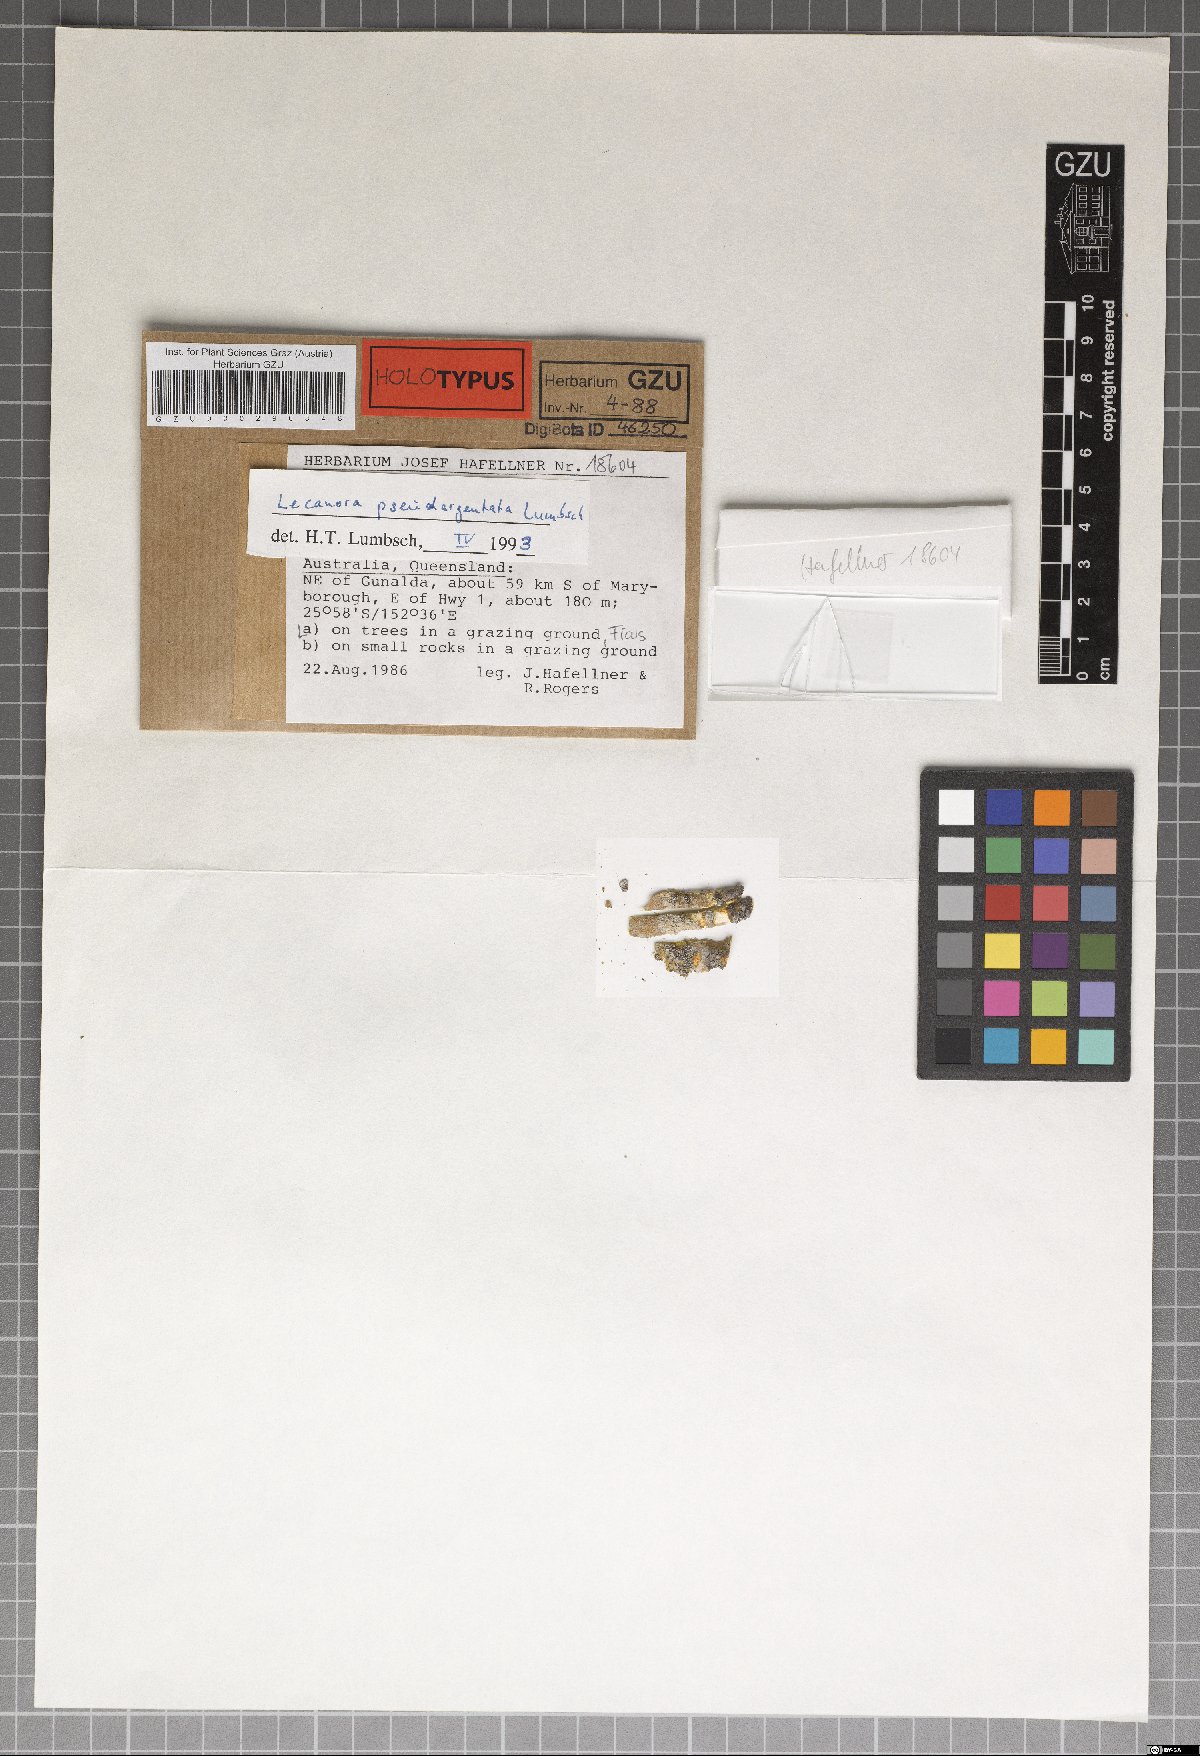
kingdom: Fungi
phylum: Ascomycota
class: Lecanoromycetes
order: Lecanorales
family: Lecanoraceae
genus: Lecanora
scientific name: Lecanora pseudargentata
